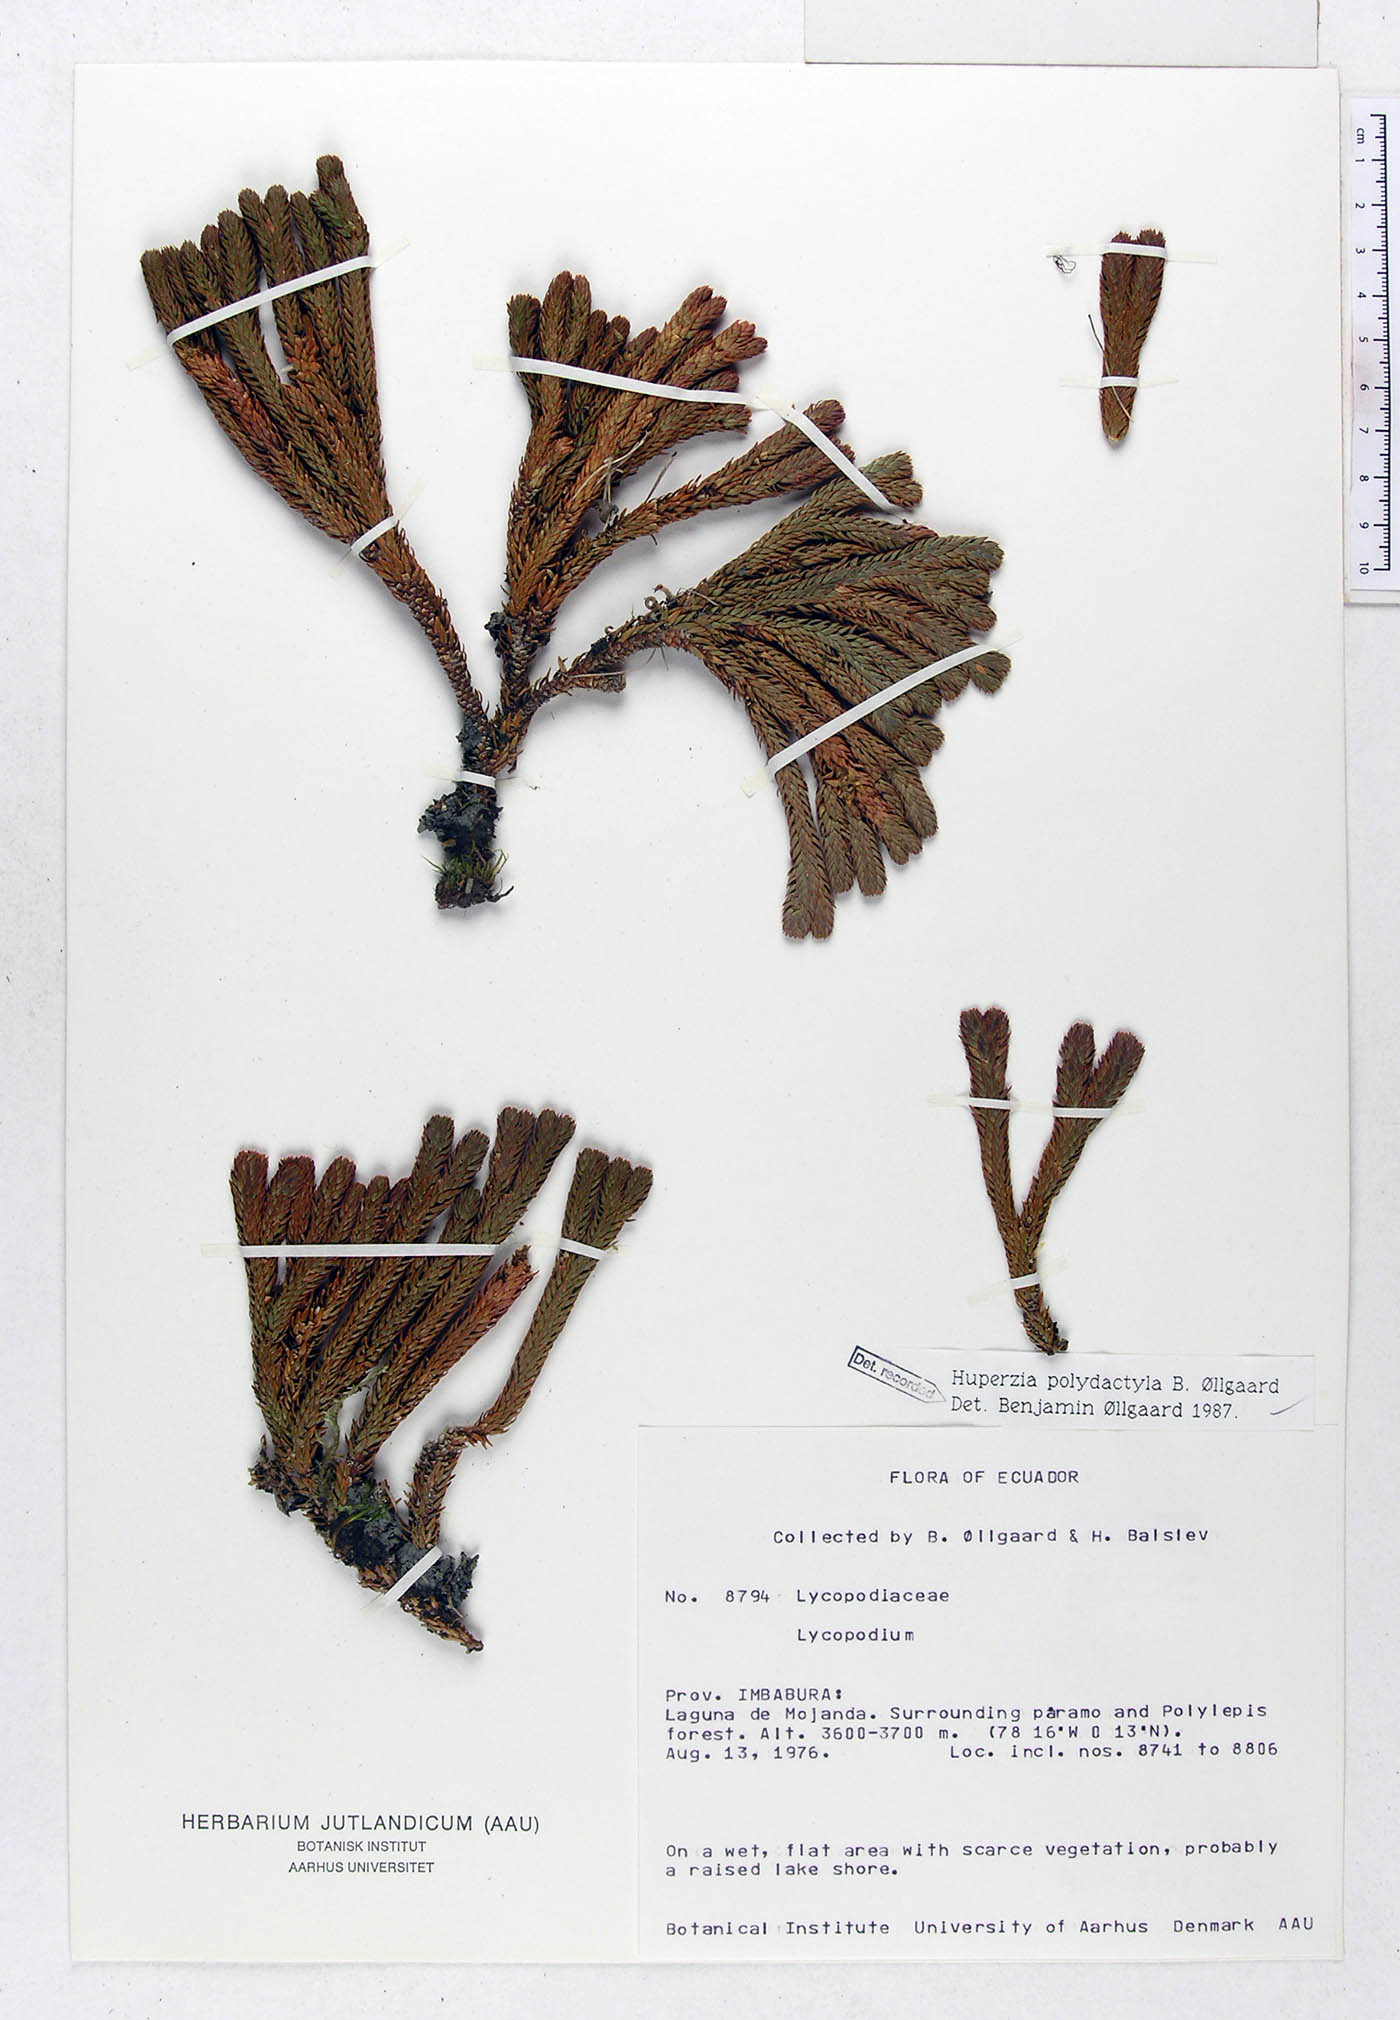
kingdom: Plantae
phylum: Tracheophyta
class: Lycopodiopsida
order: Lycopodiales
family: Lycopodiaceae
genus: Phlegmariurus
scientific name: Phlegmariurus polydactylus
